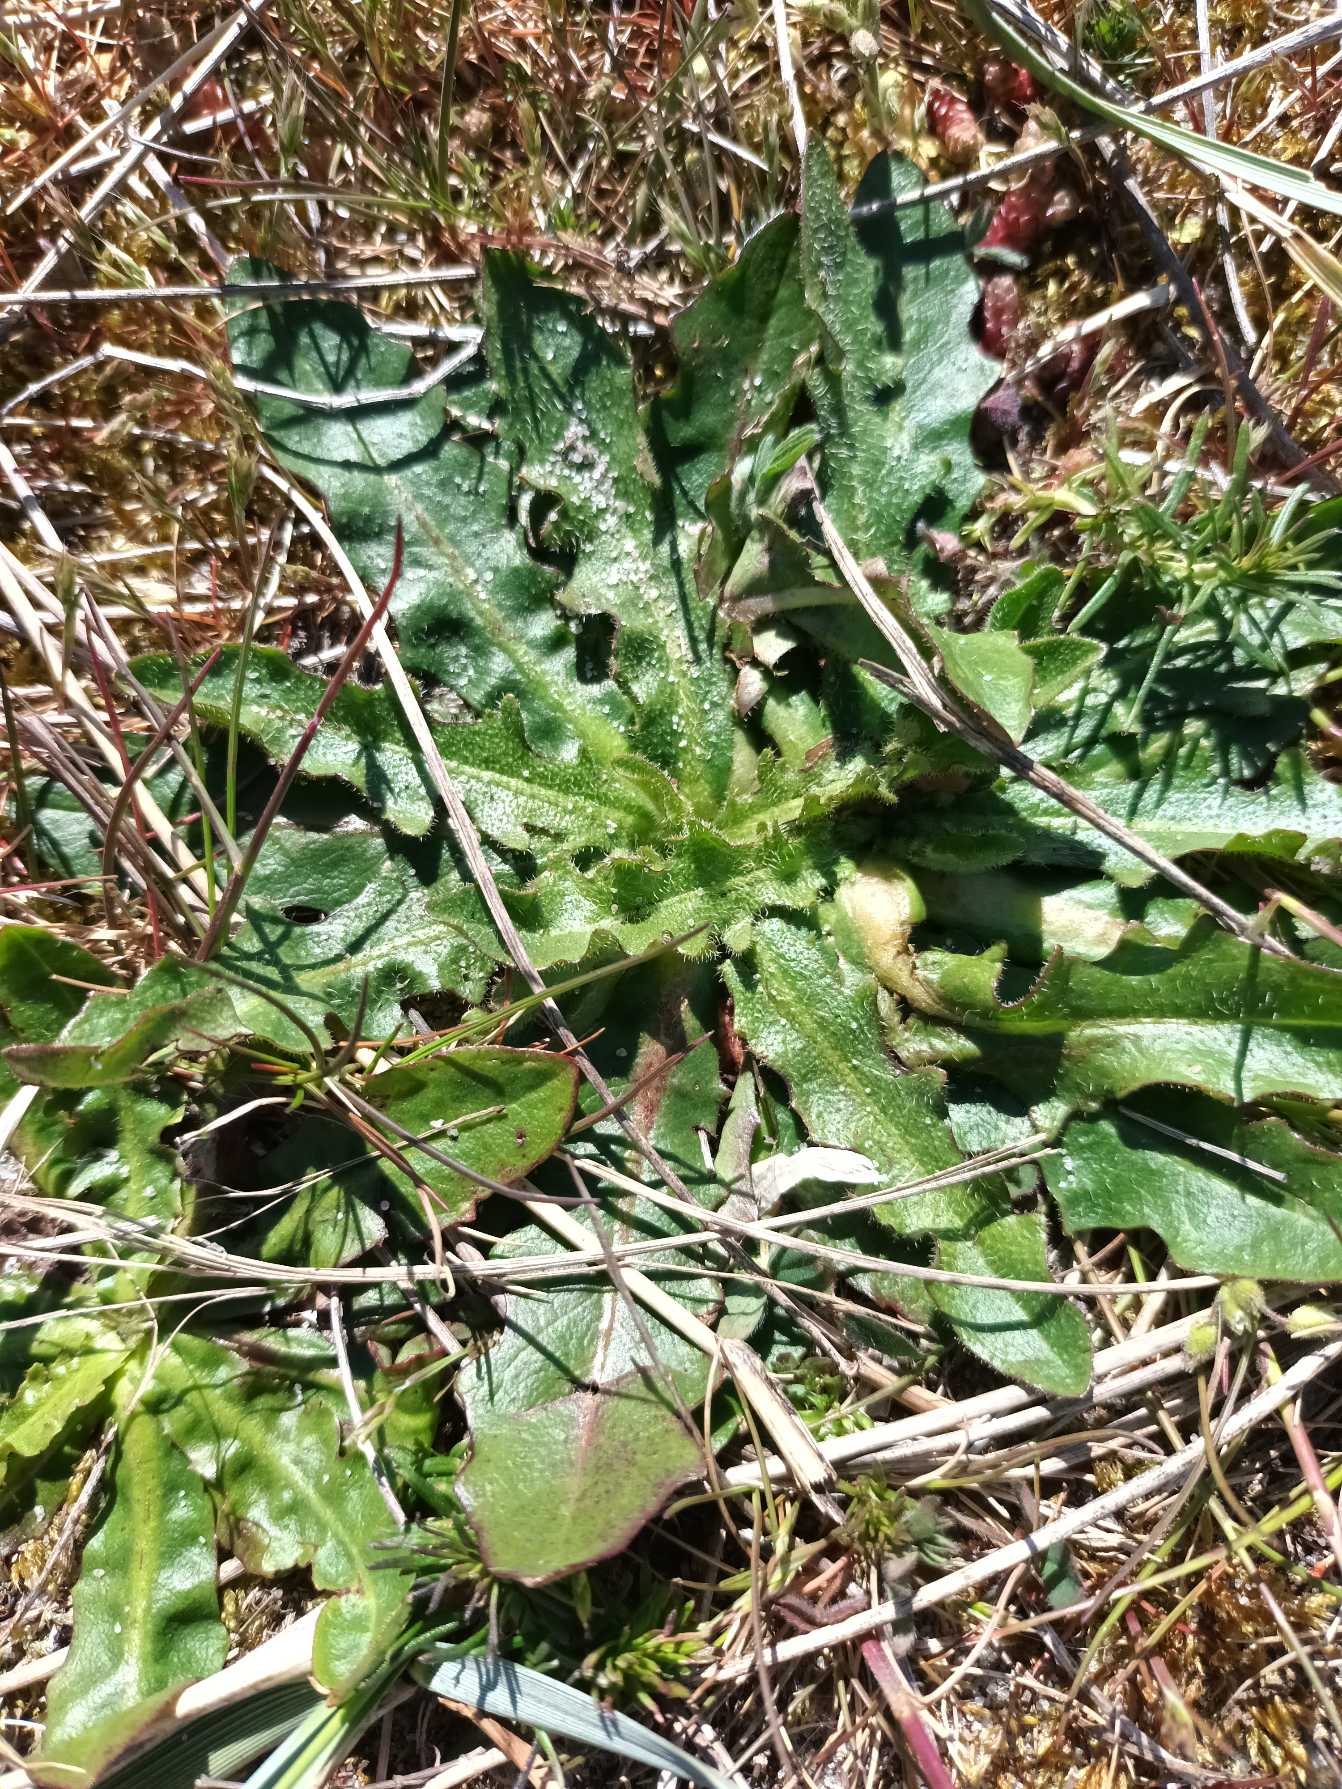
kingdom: Plantae
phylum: Tracheophyta
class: Magnoliopsida
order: Asterales
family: Asteraceae
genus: Hypochaeris
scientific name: Hypochaeris radicata
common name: Almindelig kongepen
